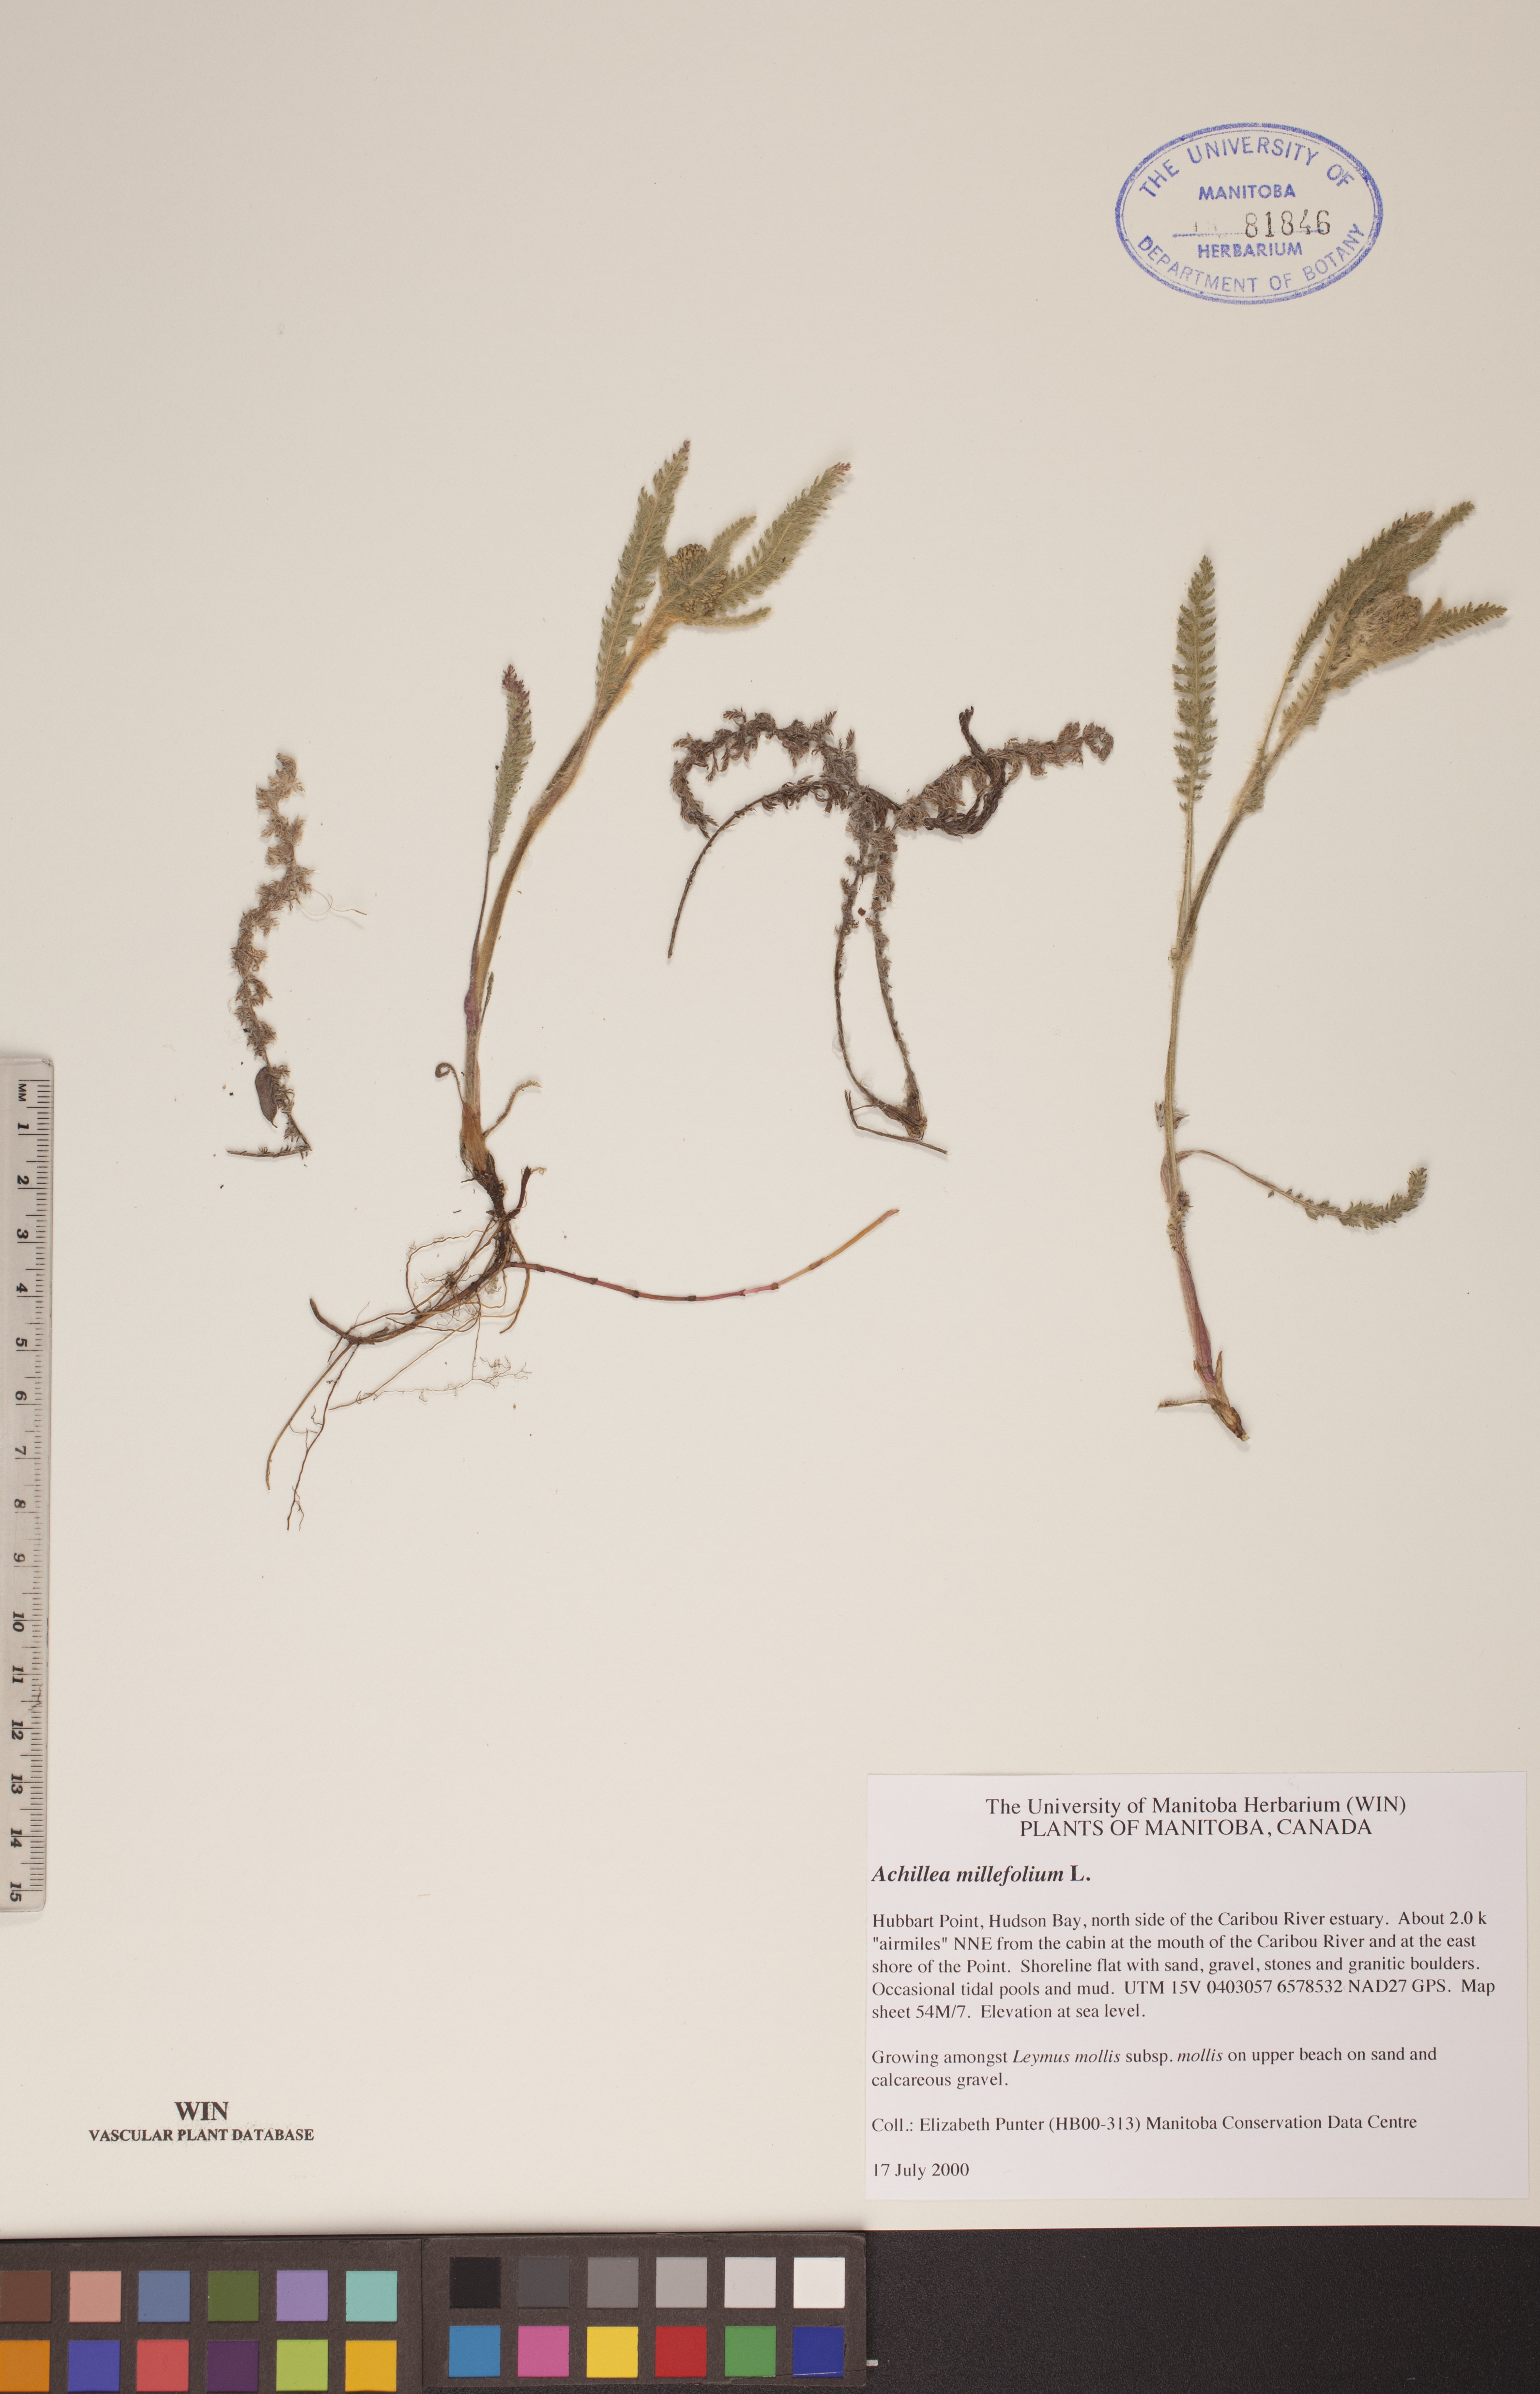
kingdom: Plantae
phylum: Tracheophyta
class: Magnoliopsida
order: Asterales
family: Asteraceae
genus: Achillea
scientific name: Achillea millefolium
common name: Yarrow
